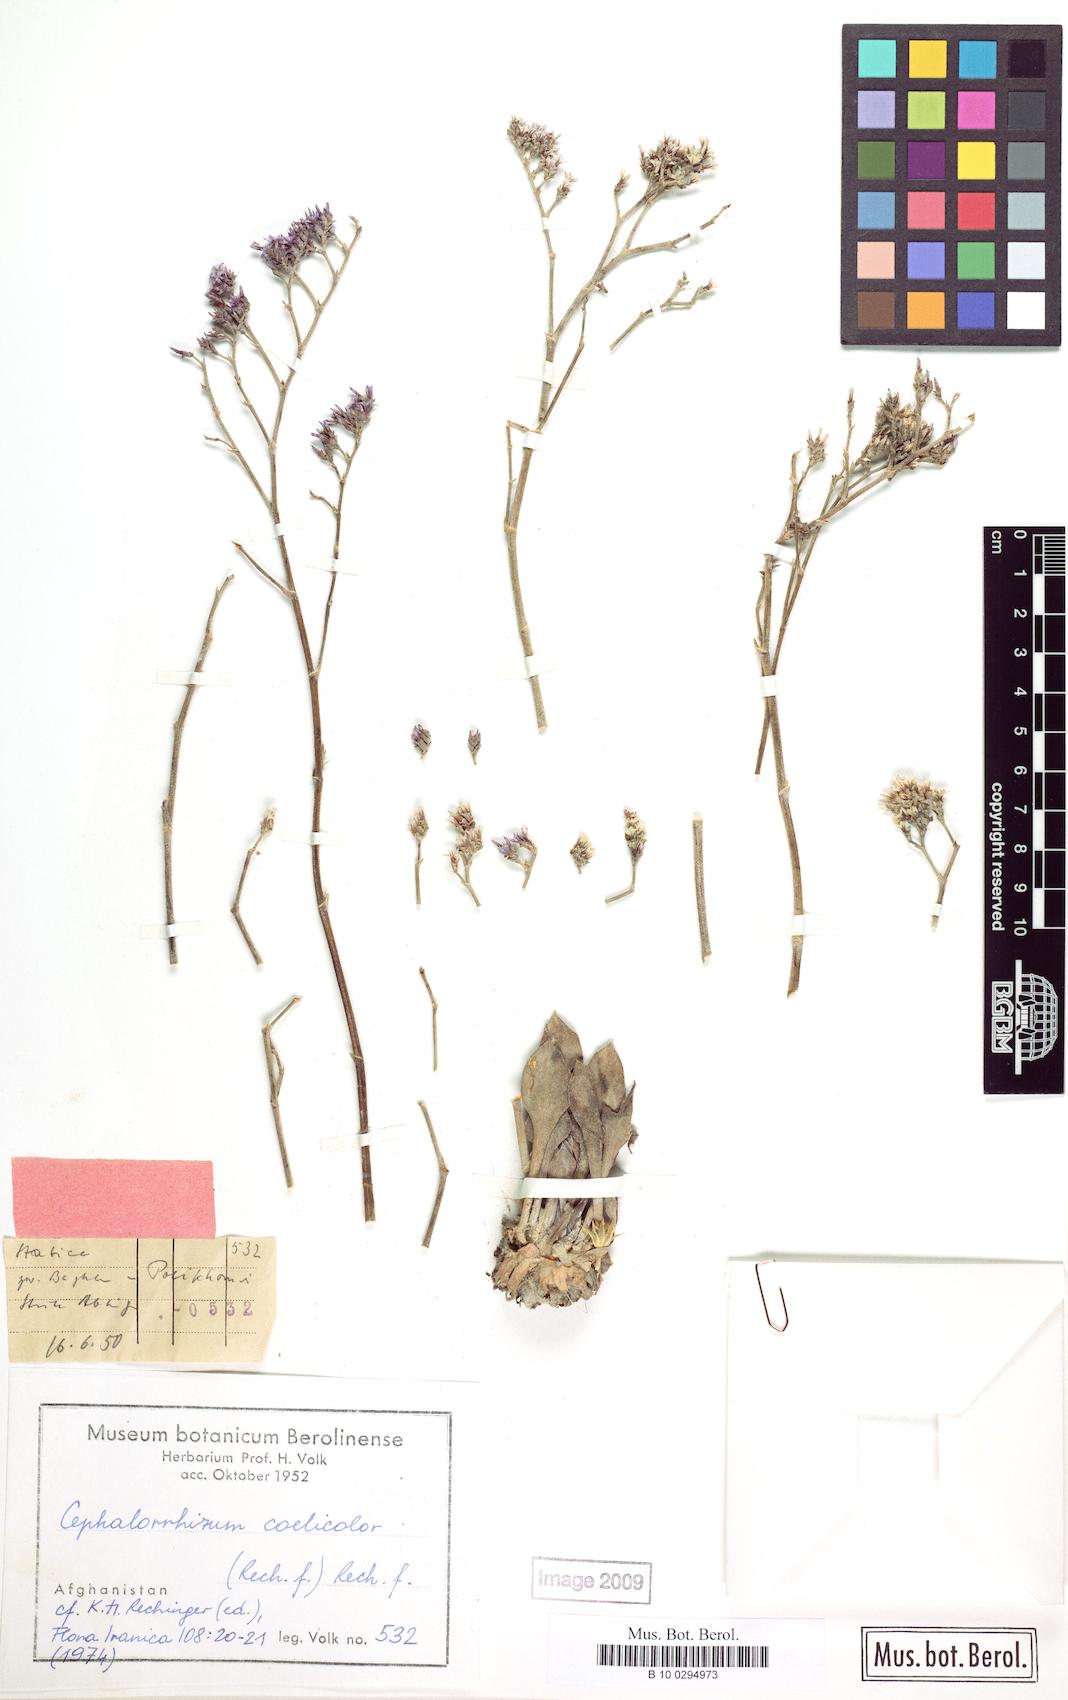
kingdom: Plantae
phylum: Tracheophyta
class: Magnoliopsida
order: Caryophyllales
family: Plumbaginaceae
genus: Cephalorhizum
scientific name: Cephalorhizum coelicolor
